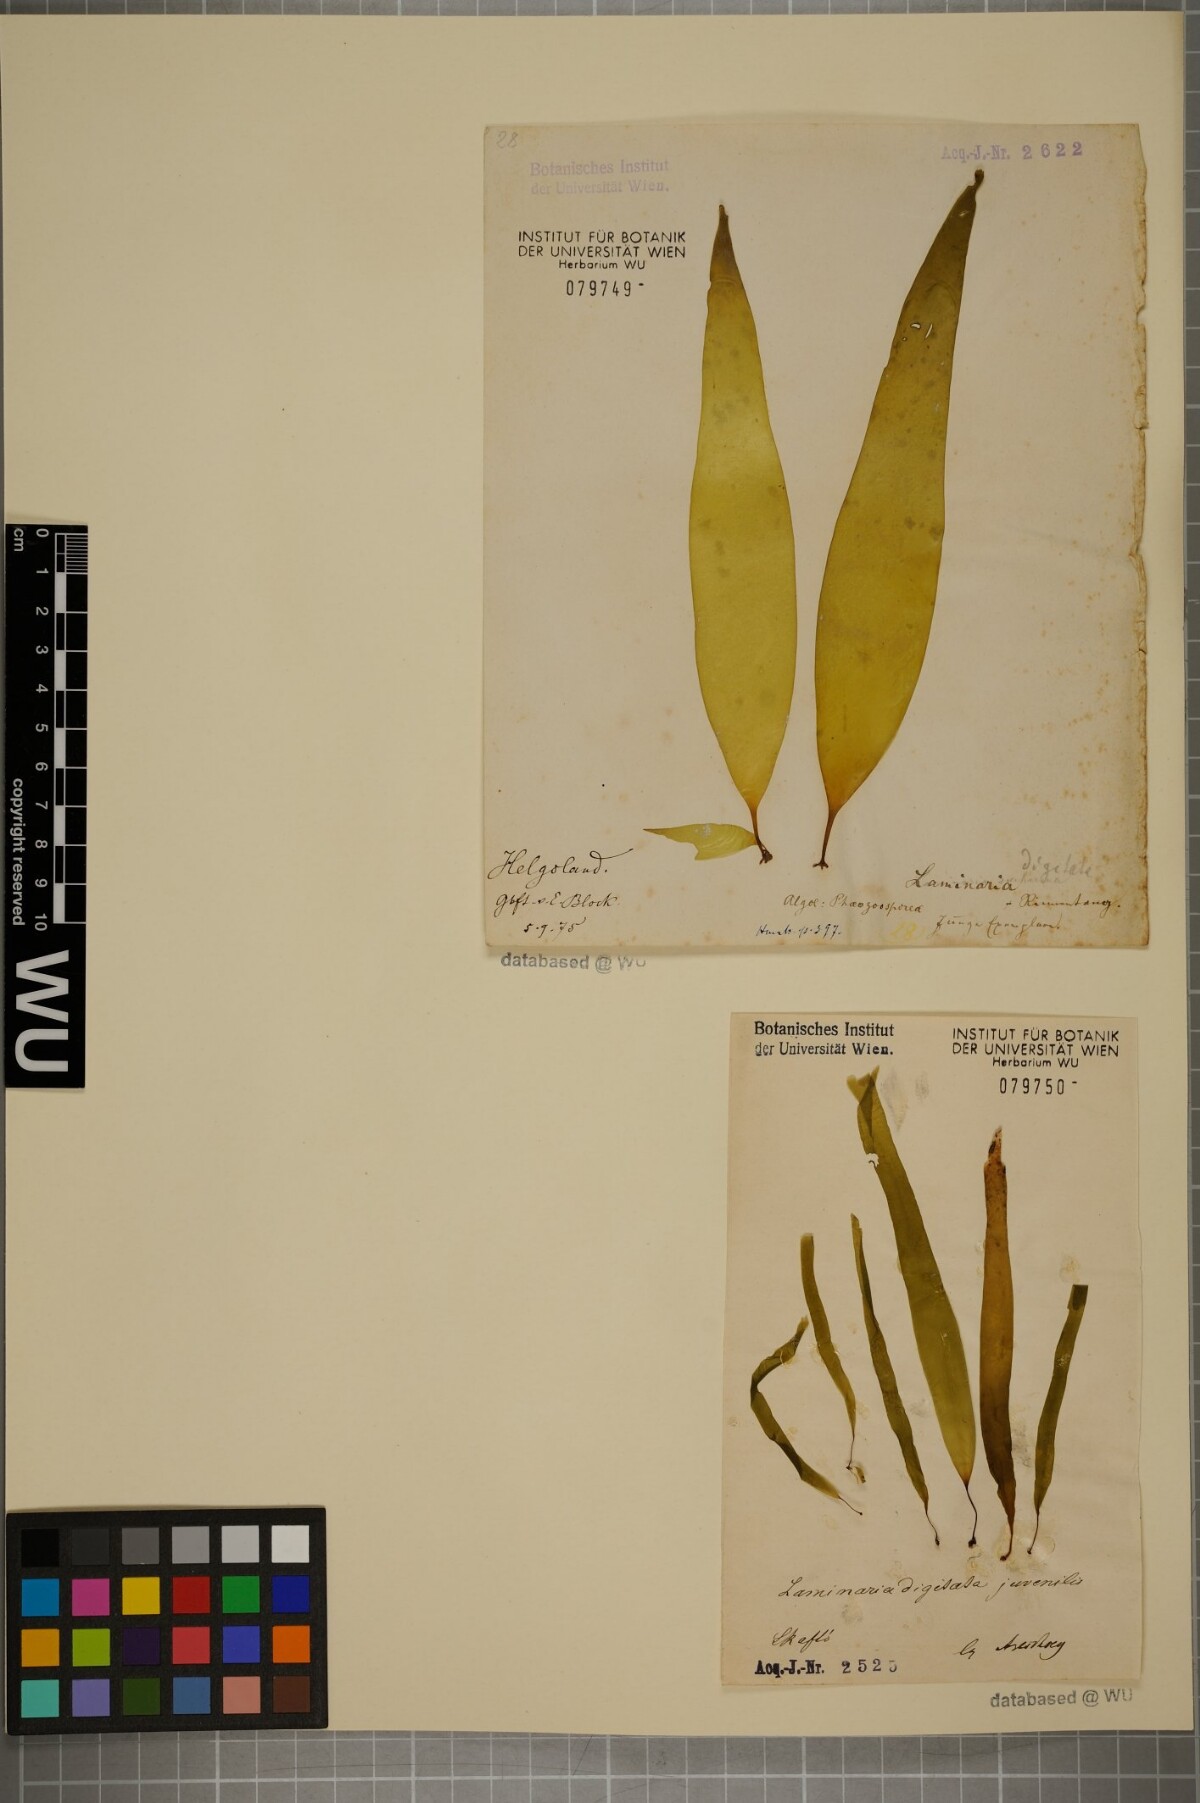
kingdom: Chromista
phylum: Ochrophyta
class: Phaeophyceae
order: Laminariales
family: Laminariaceae
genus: Laminaria
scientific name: Laminaria digitata
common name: Oarweed
